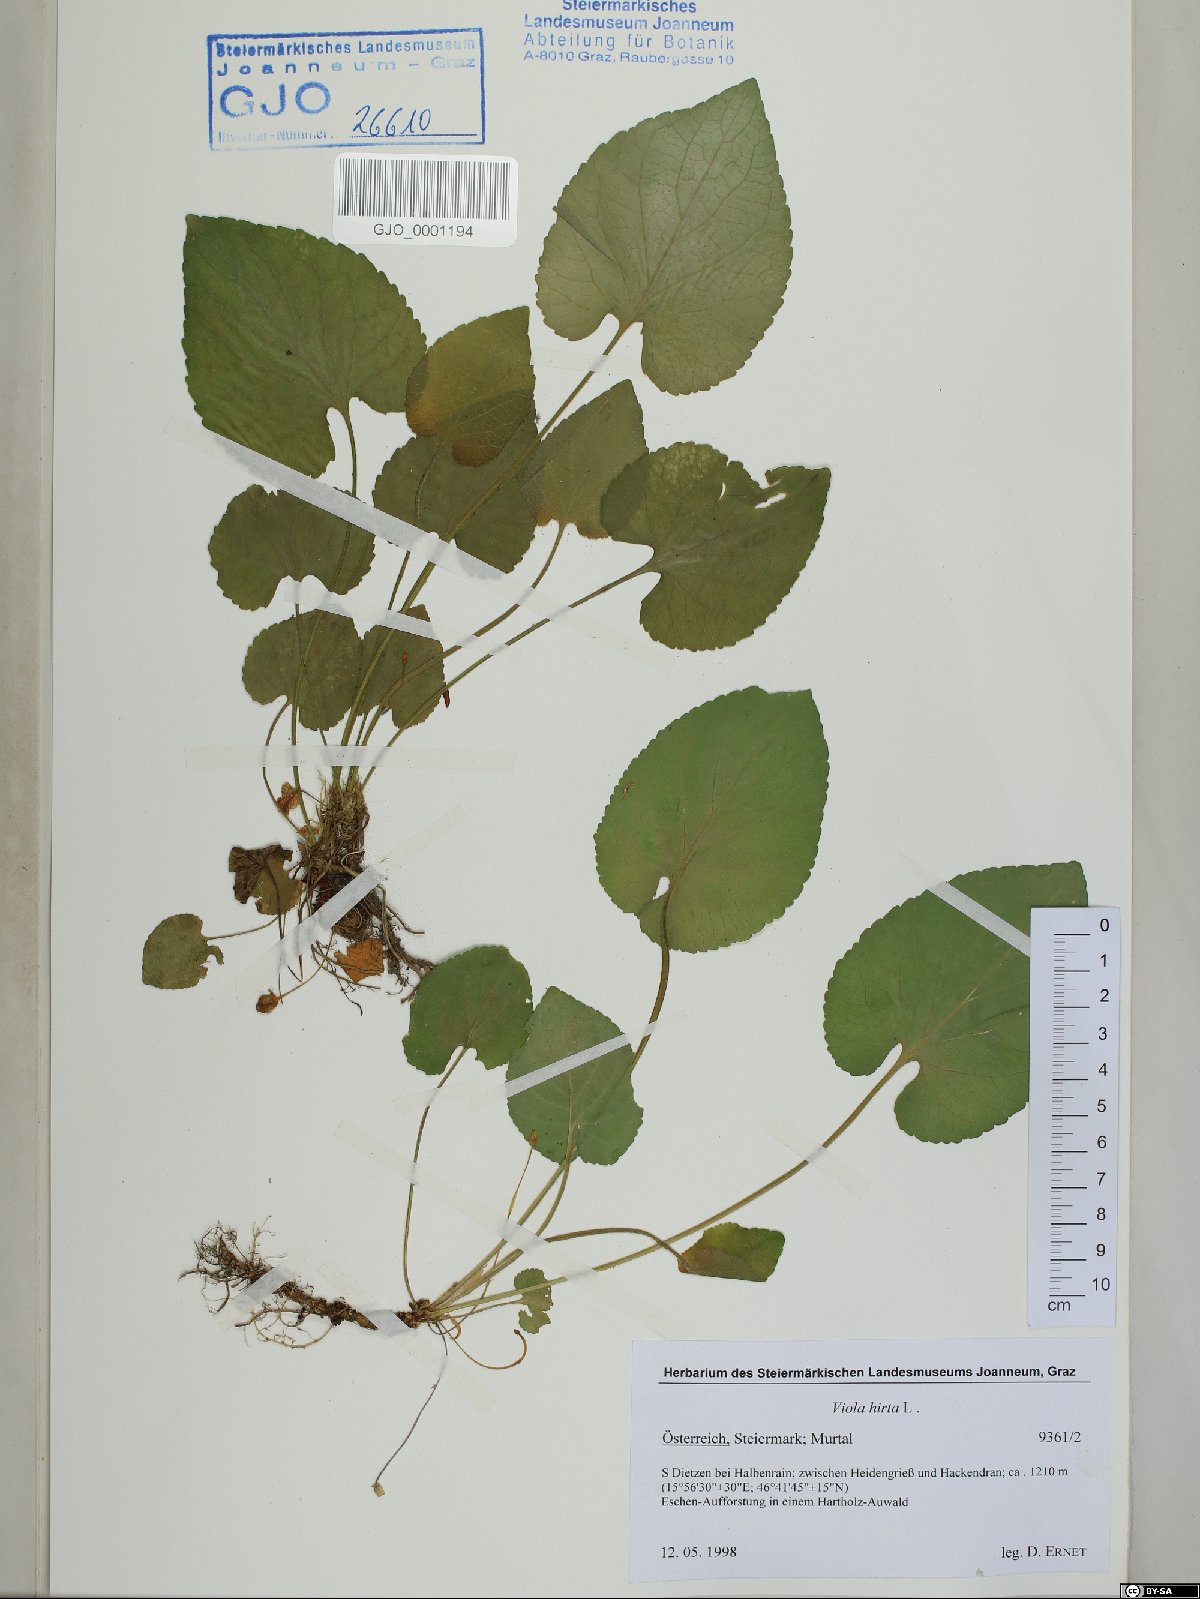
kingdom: Plantae
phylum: Tracheophyta
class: Magnoliopsida
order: Malpighiales
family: Violaceae
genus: Viola
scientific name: Viola hirta
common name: Hairy violet
